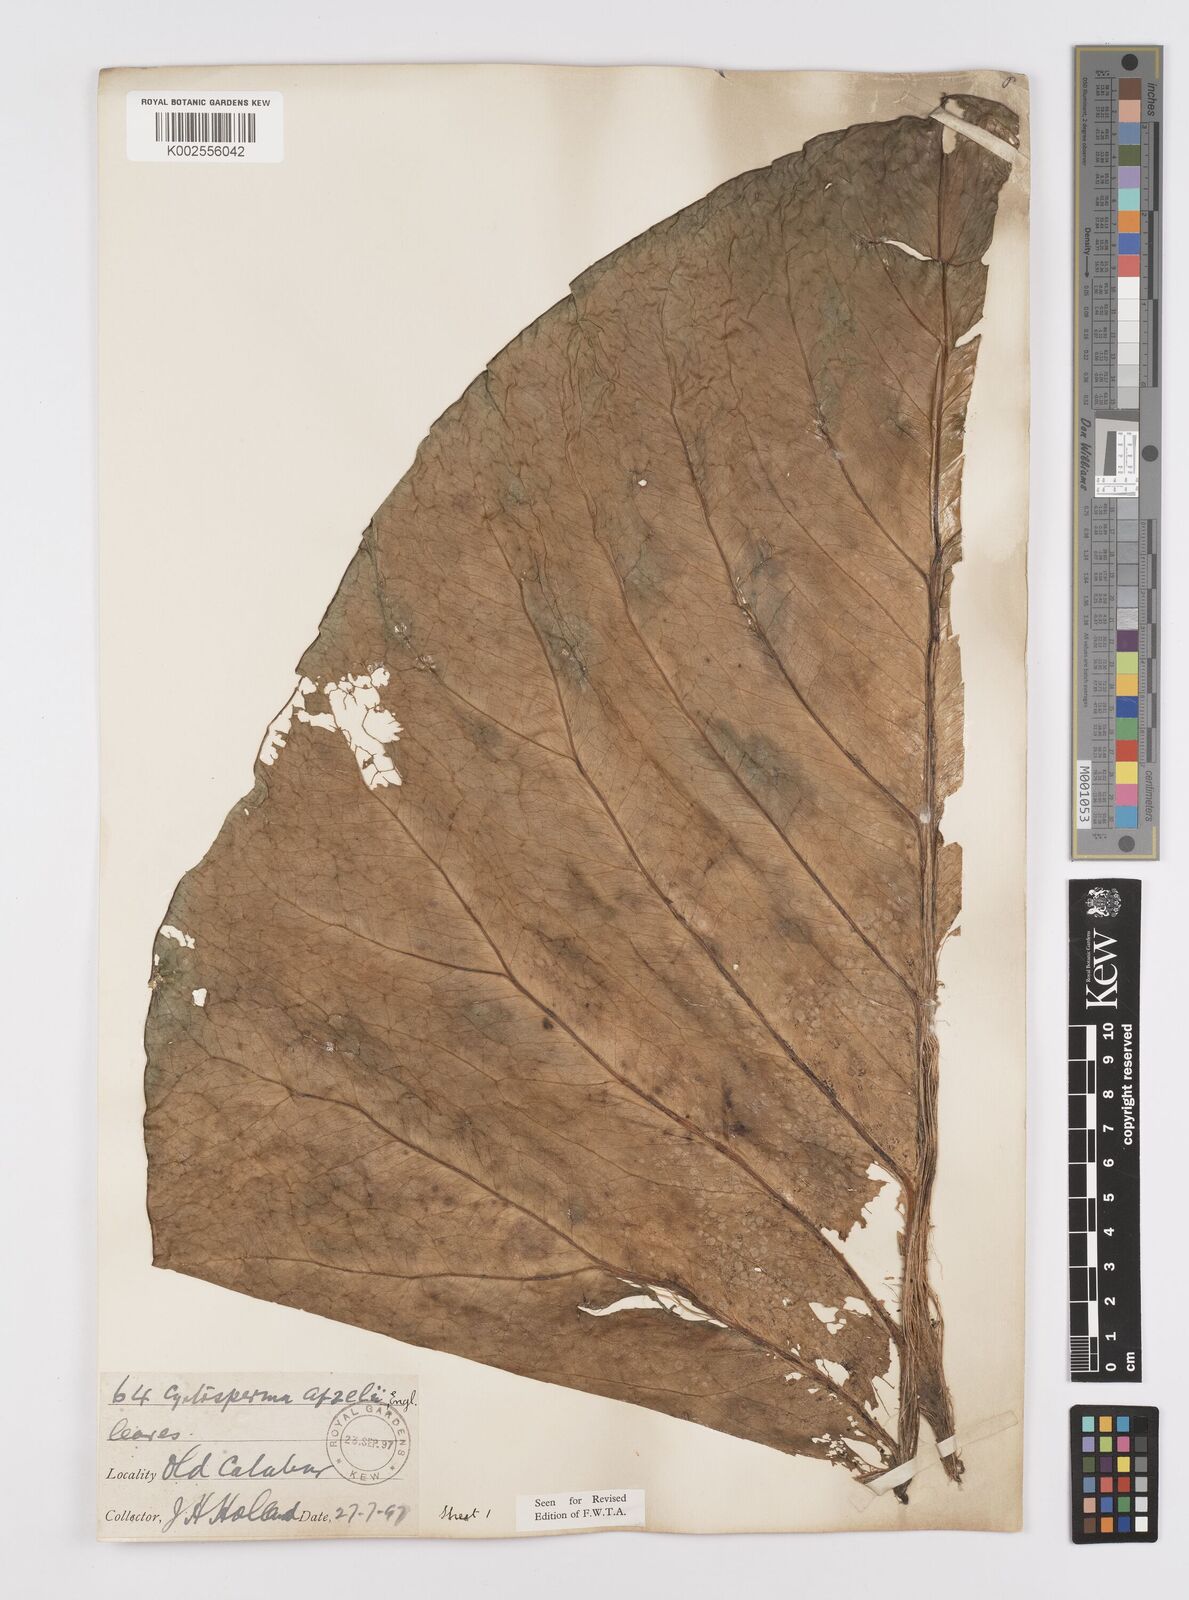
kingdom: Plantae
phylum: Tracheophyta
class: Liliopsida
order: Alismatales
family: Araceae
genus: Lasimorpha
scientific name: Lasimorpha senegalensis
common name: Swamp arum
